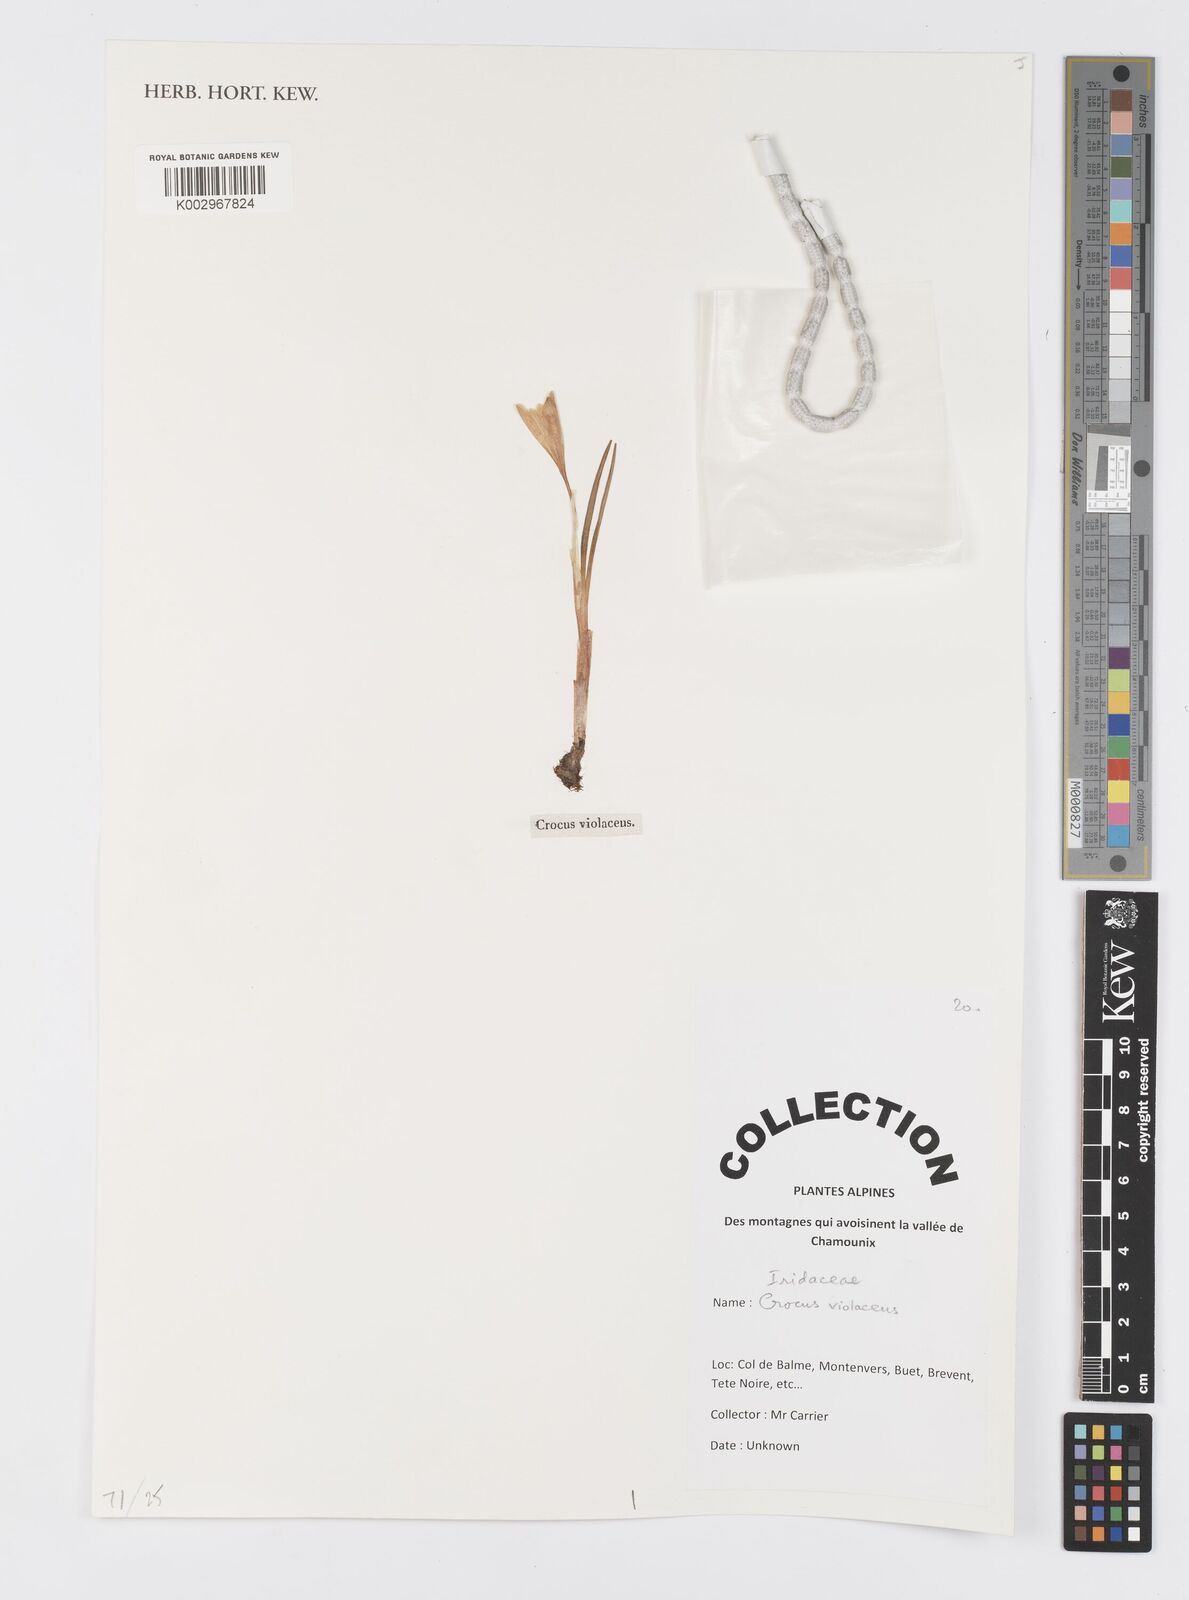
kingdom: Plantae
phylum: Tracheophyta
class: Liliopsida
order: Asparagales
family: Iridaceae
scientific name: Iridaceae
